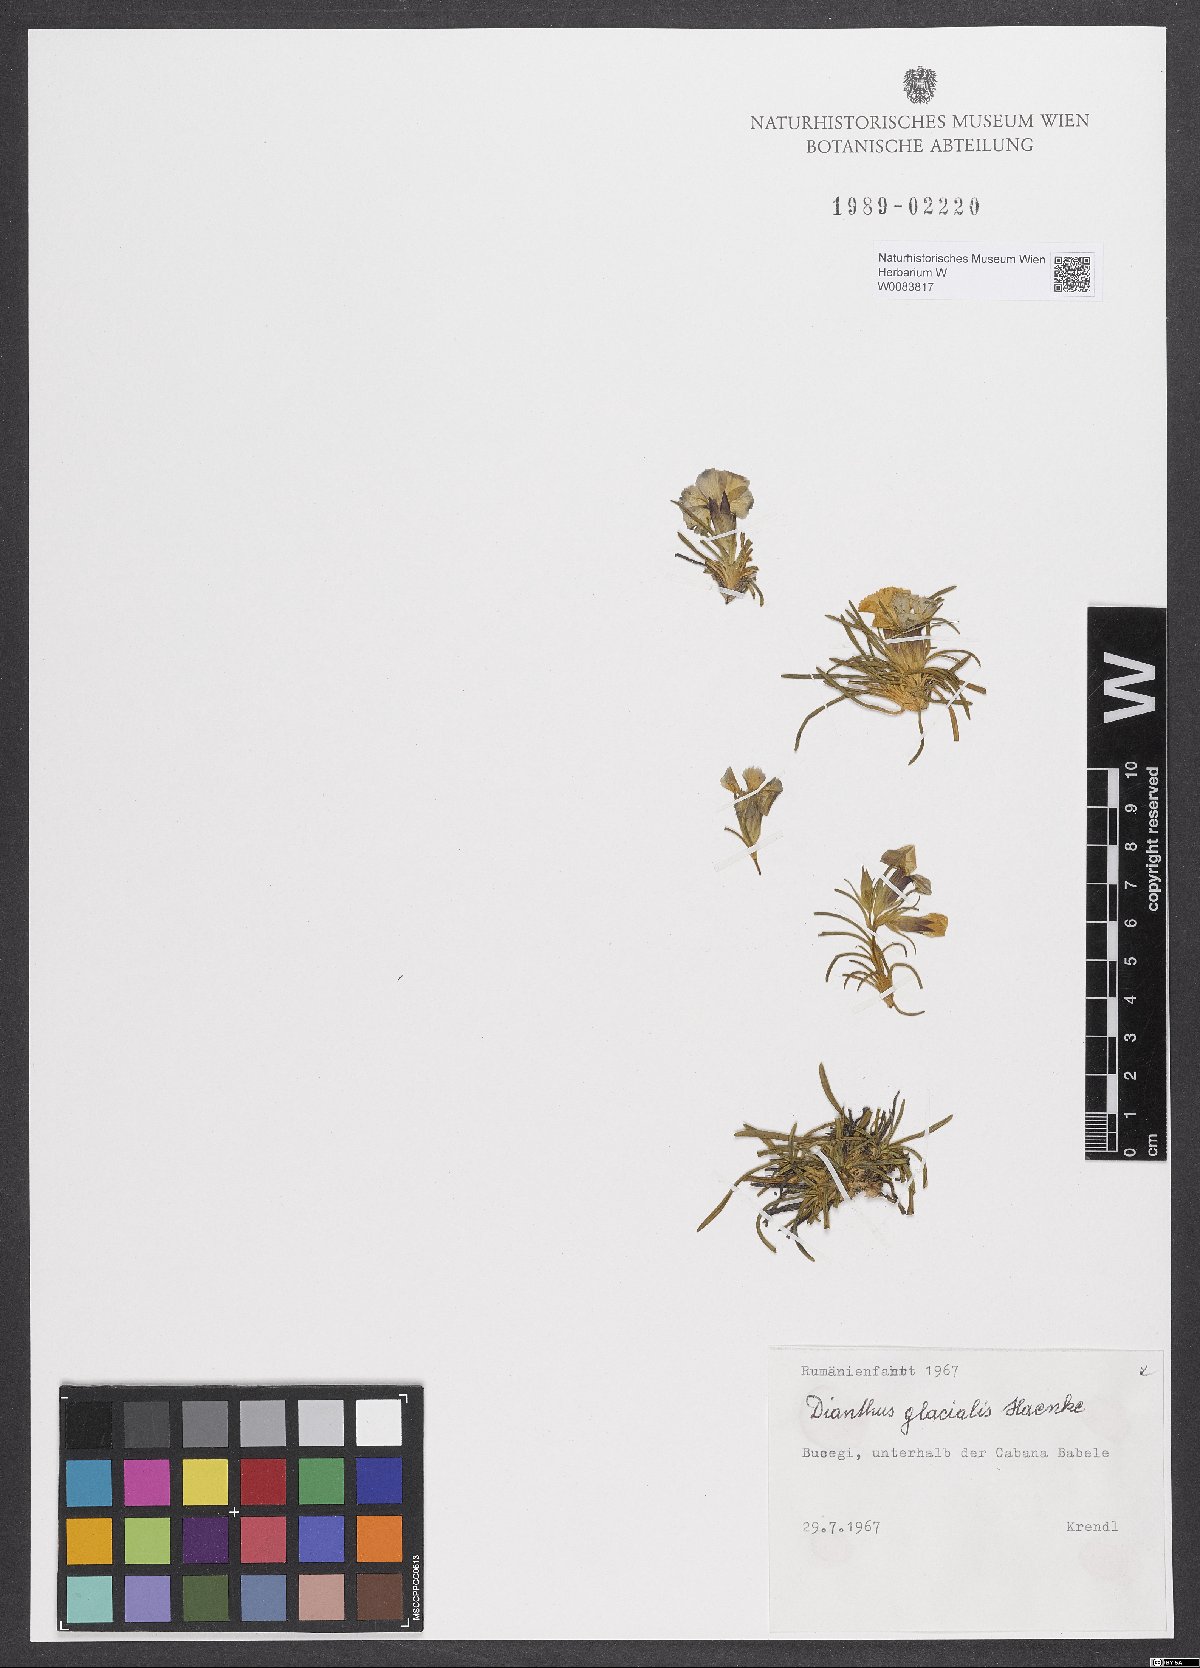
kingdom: Plantae
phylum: Tracheophyta
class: Magnoliopsida
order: Caryophyllales
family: Caryophyllaceae
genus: Dianthus
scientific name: Dianthus glacialis
